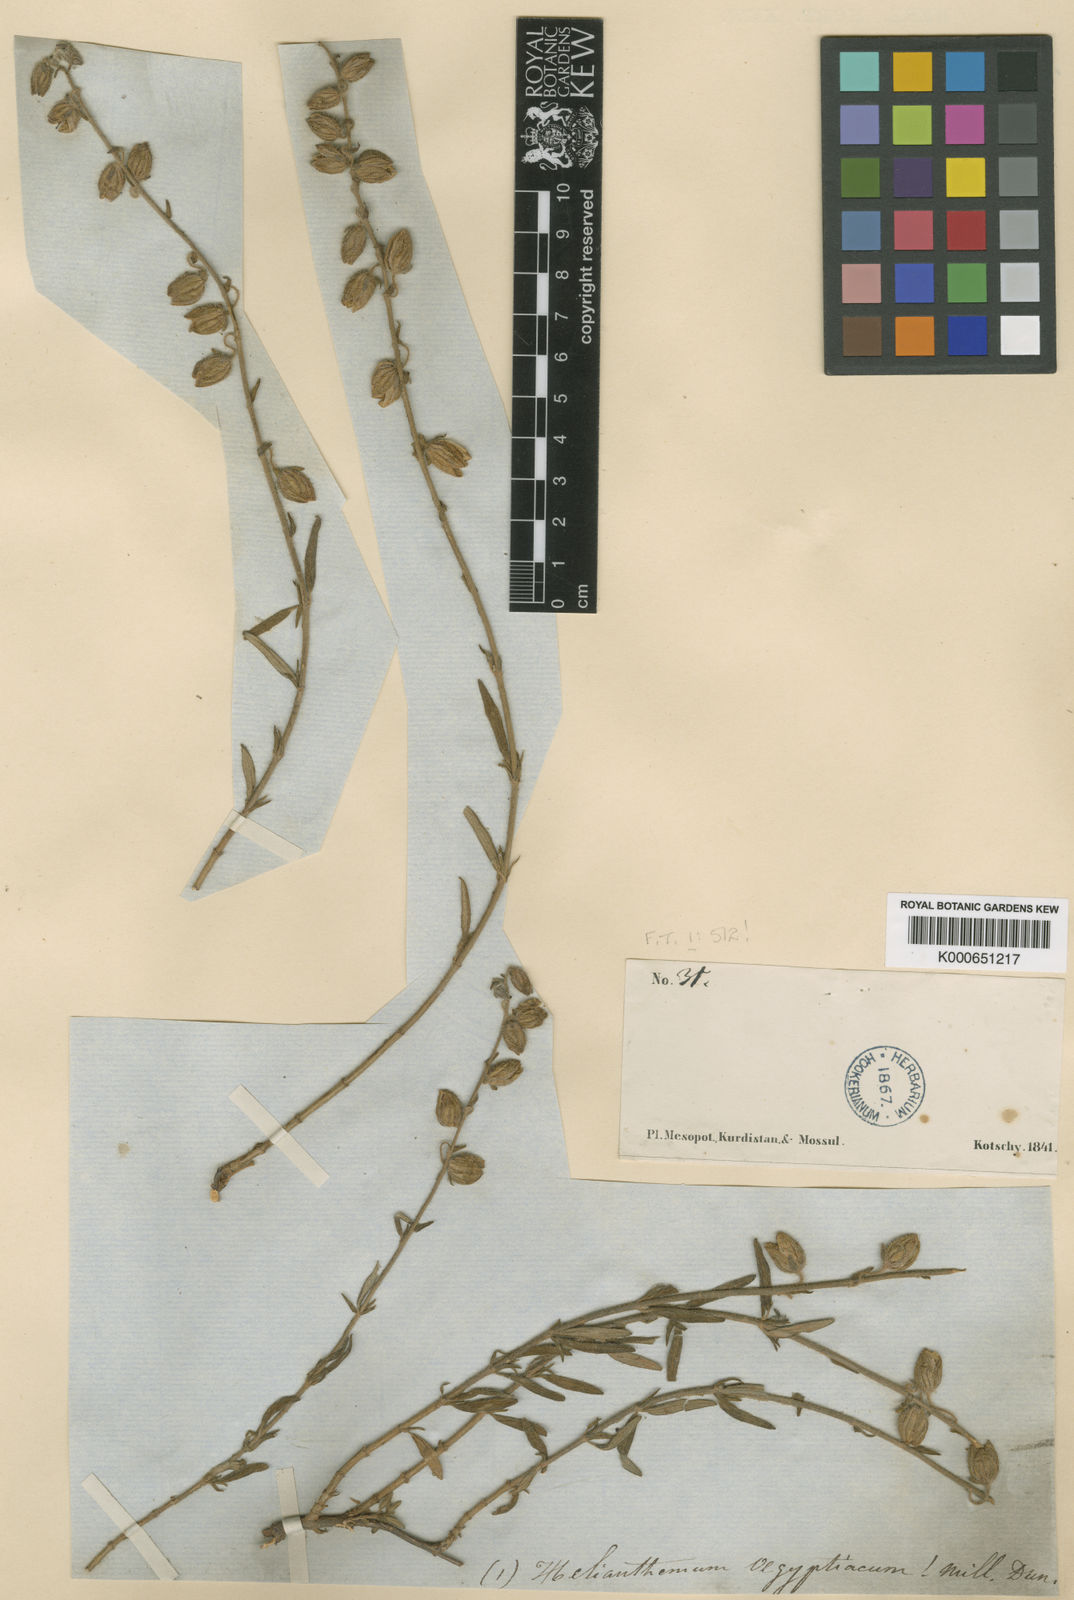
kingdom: Plantae
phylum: Tracheophyta
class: Magnoliopsida
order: Malvales
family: Cistaceae
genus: Helianthemum
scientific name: Helianthemum kotschyanum
